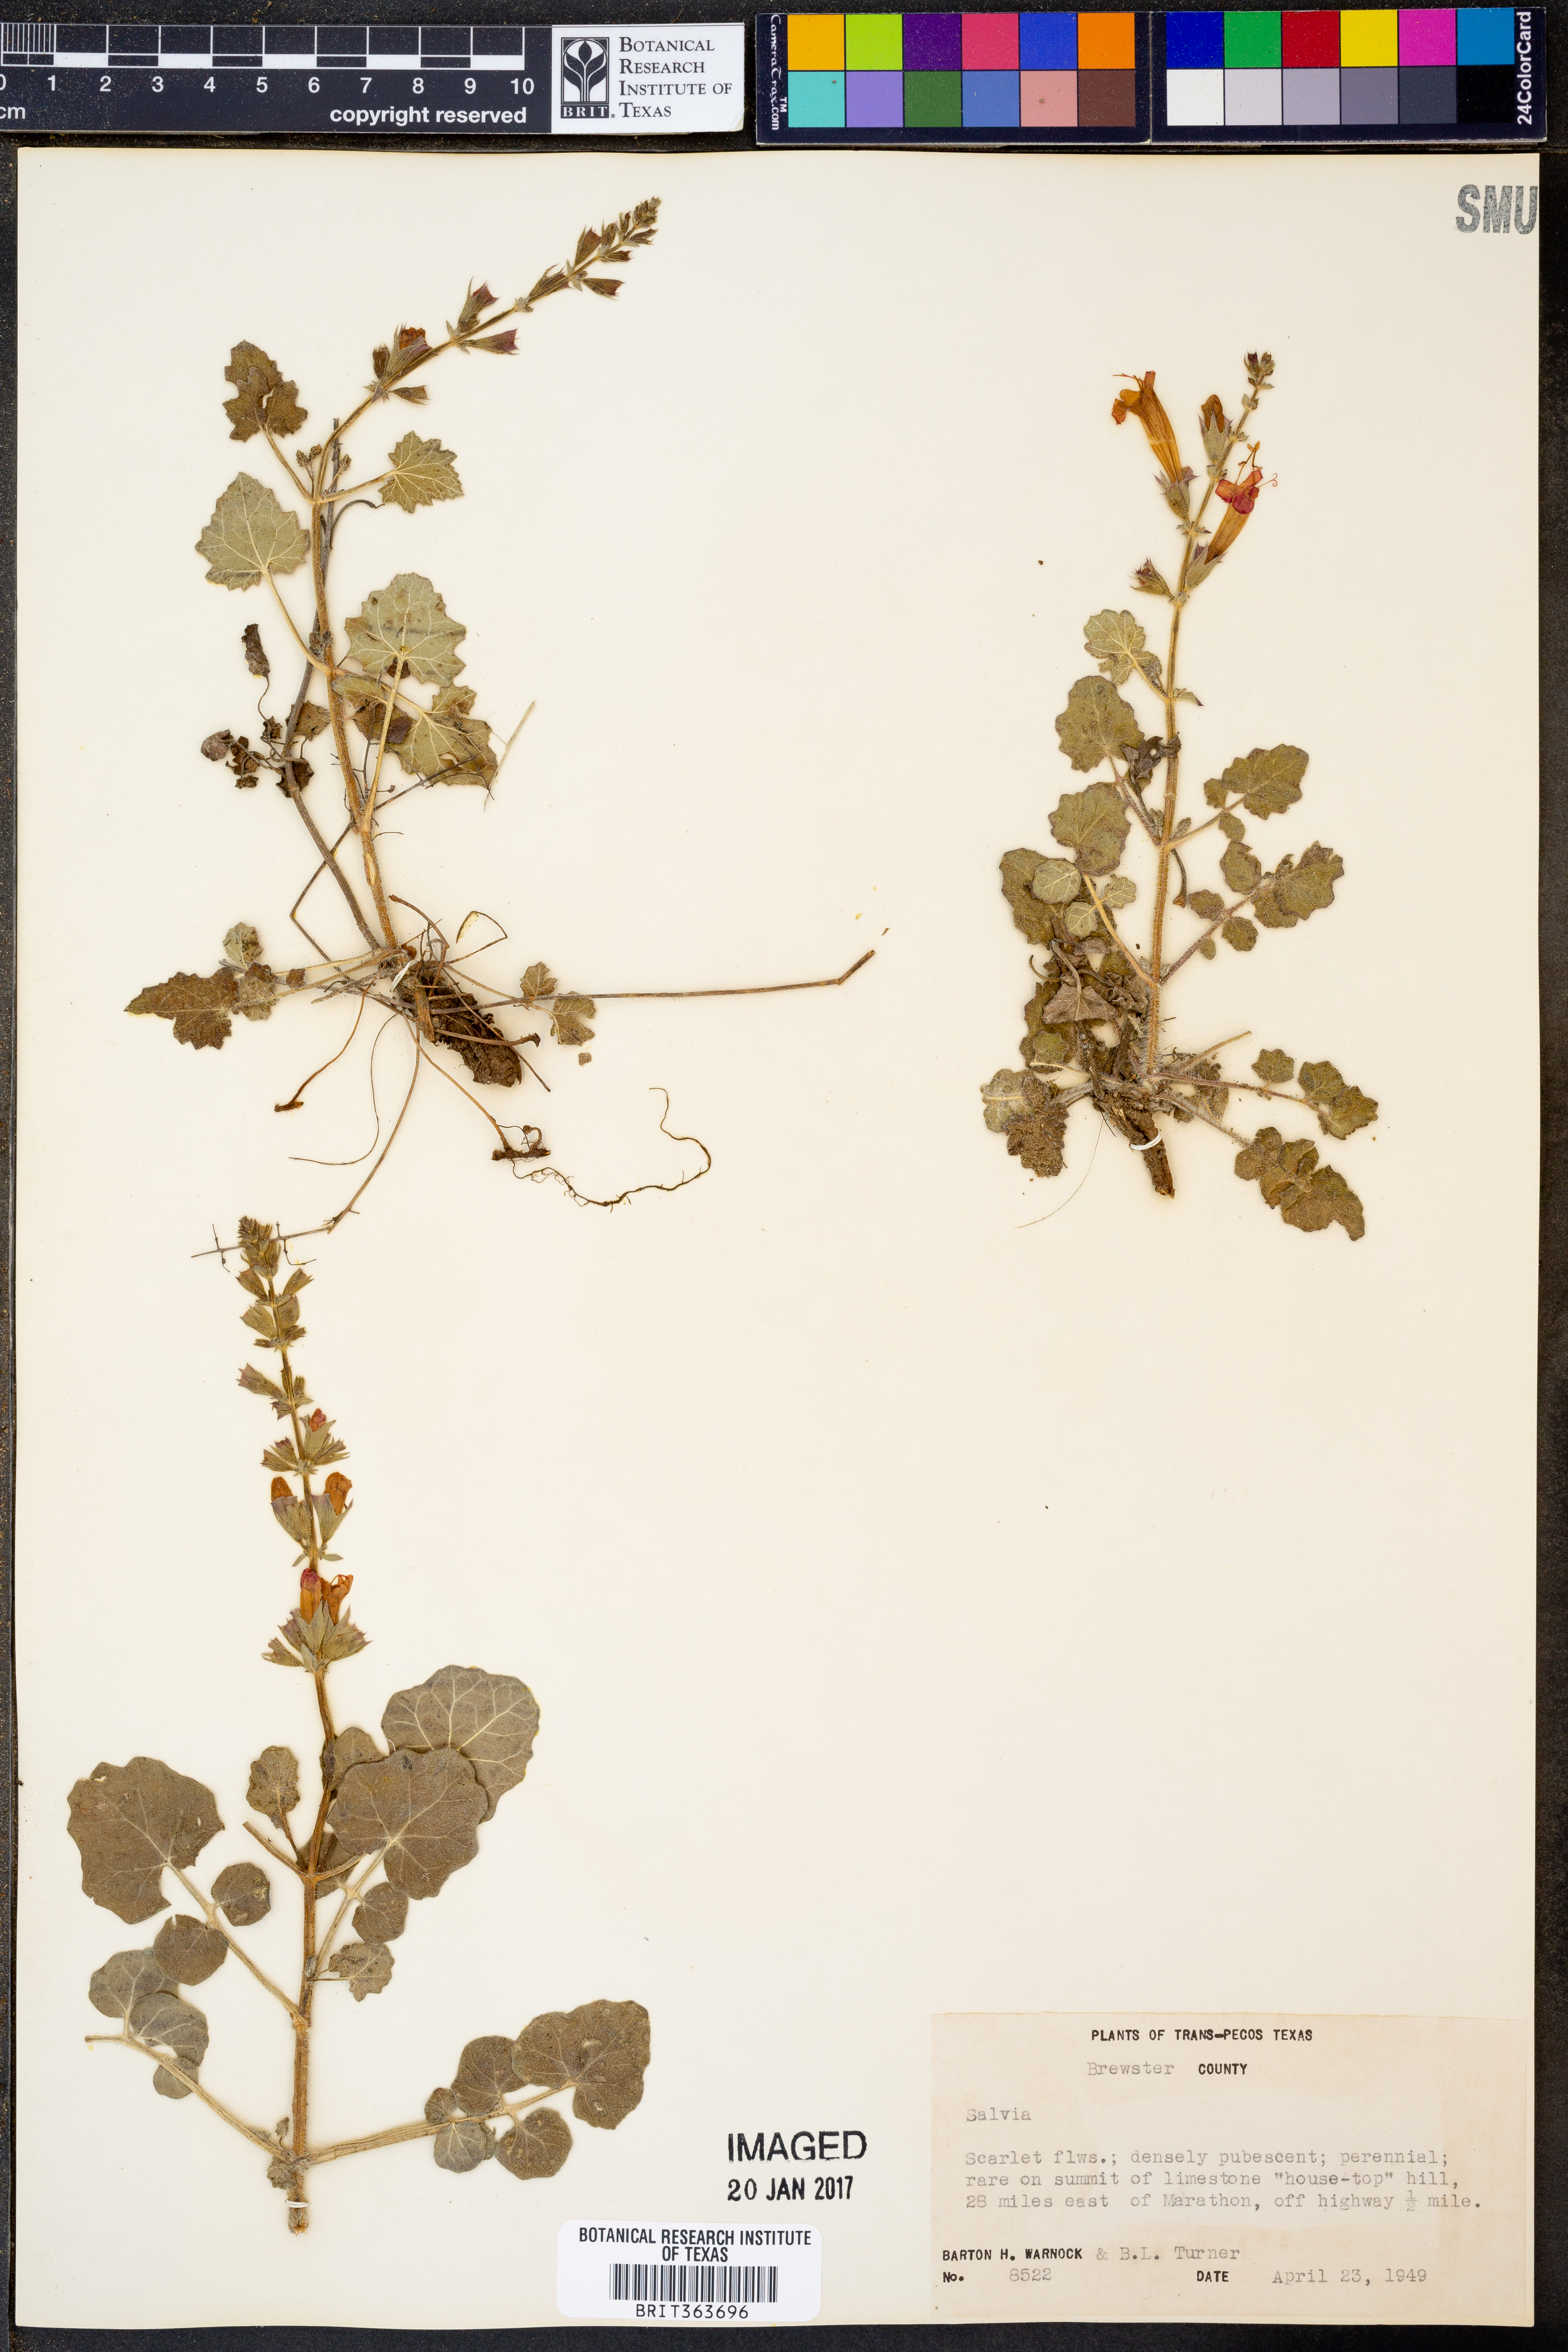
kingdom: Plantae
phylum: Tracheophyta
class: Magnoliopsida
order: Lamiales
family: Lamiaceae
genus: Salvia
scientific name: Salvia
